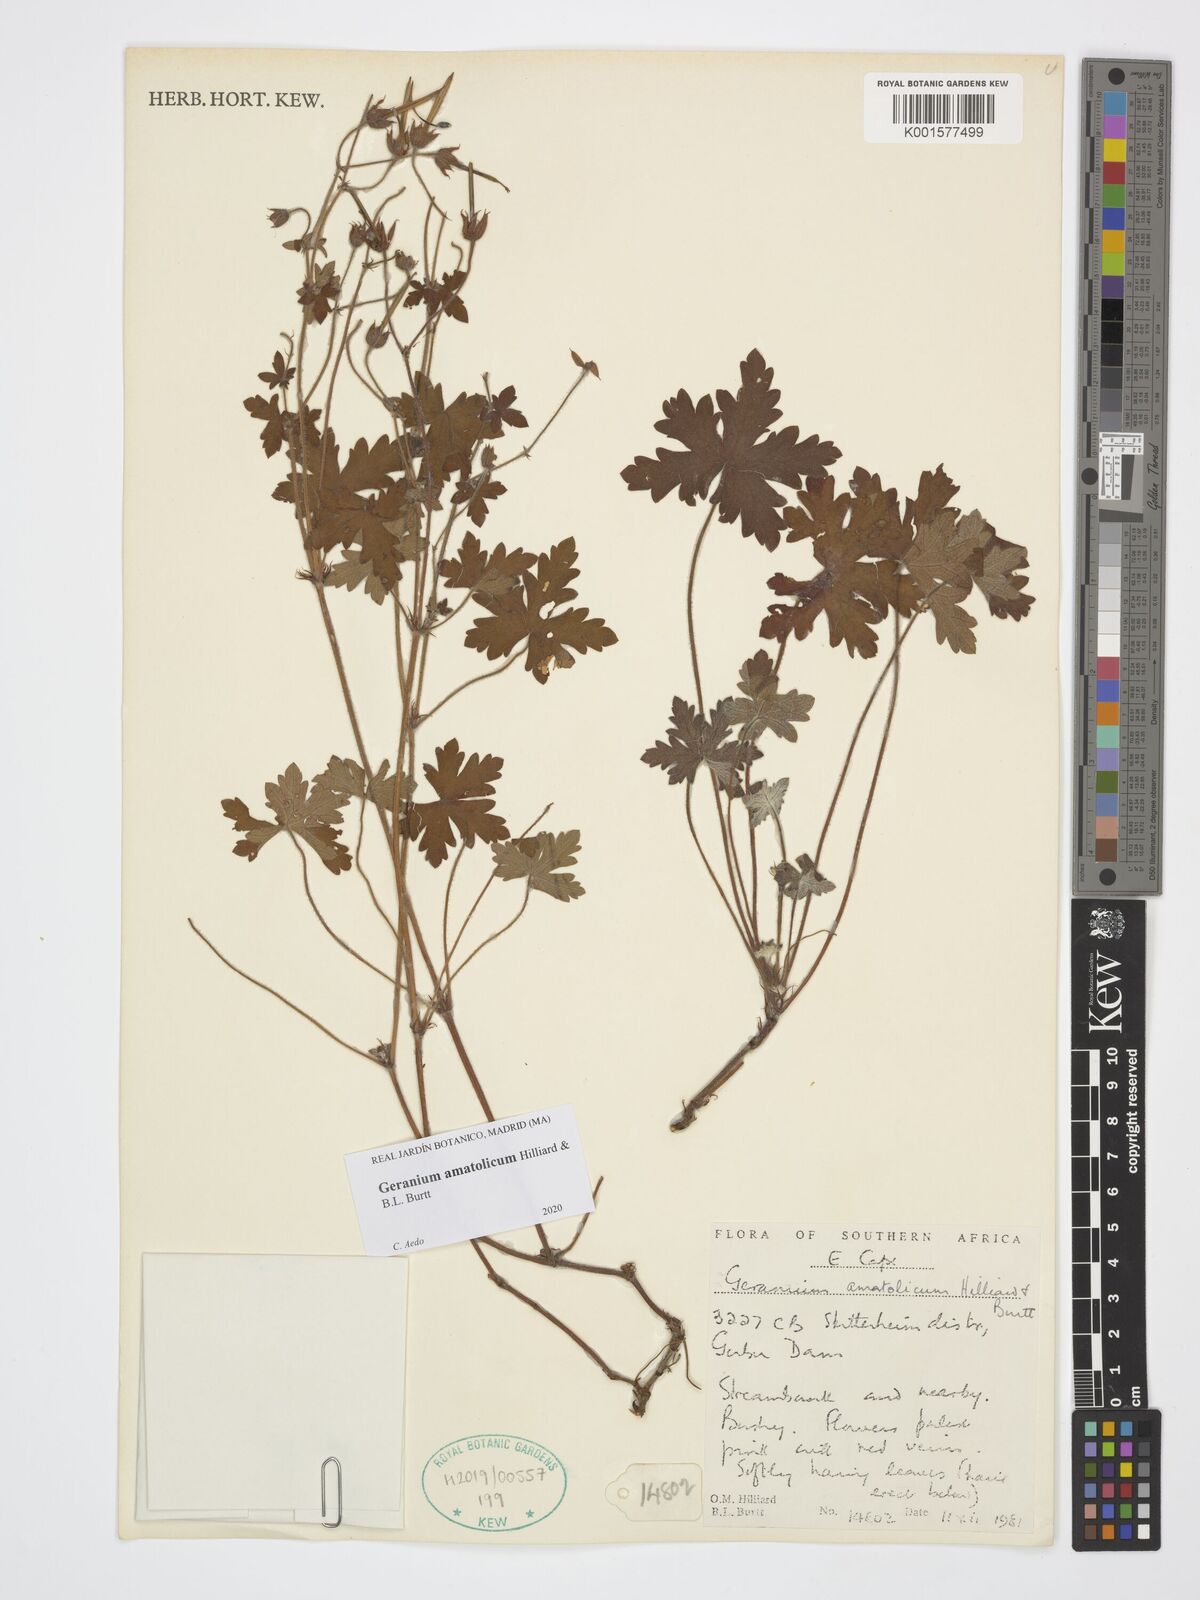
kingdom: Plantae
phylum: Tracheophyta
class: Magnoliopsida
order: Geraniales
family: Geraniaceae
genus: Geranium
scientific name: Geranium amatolicum
